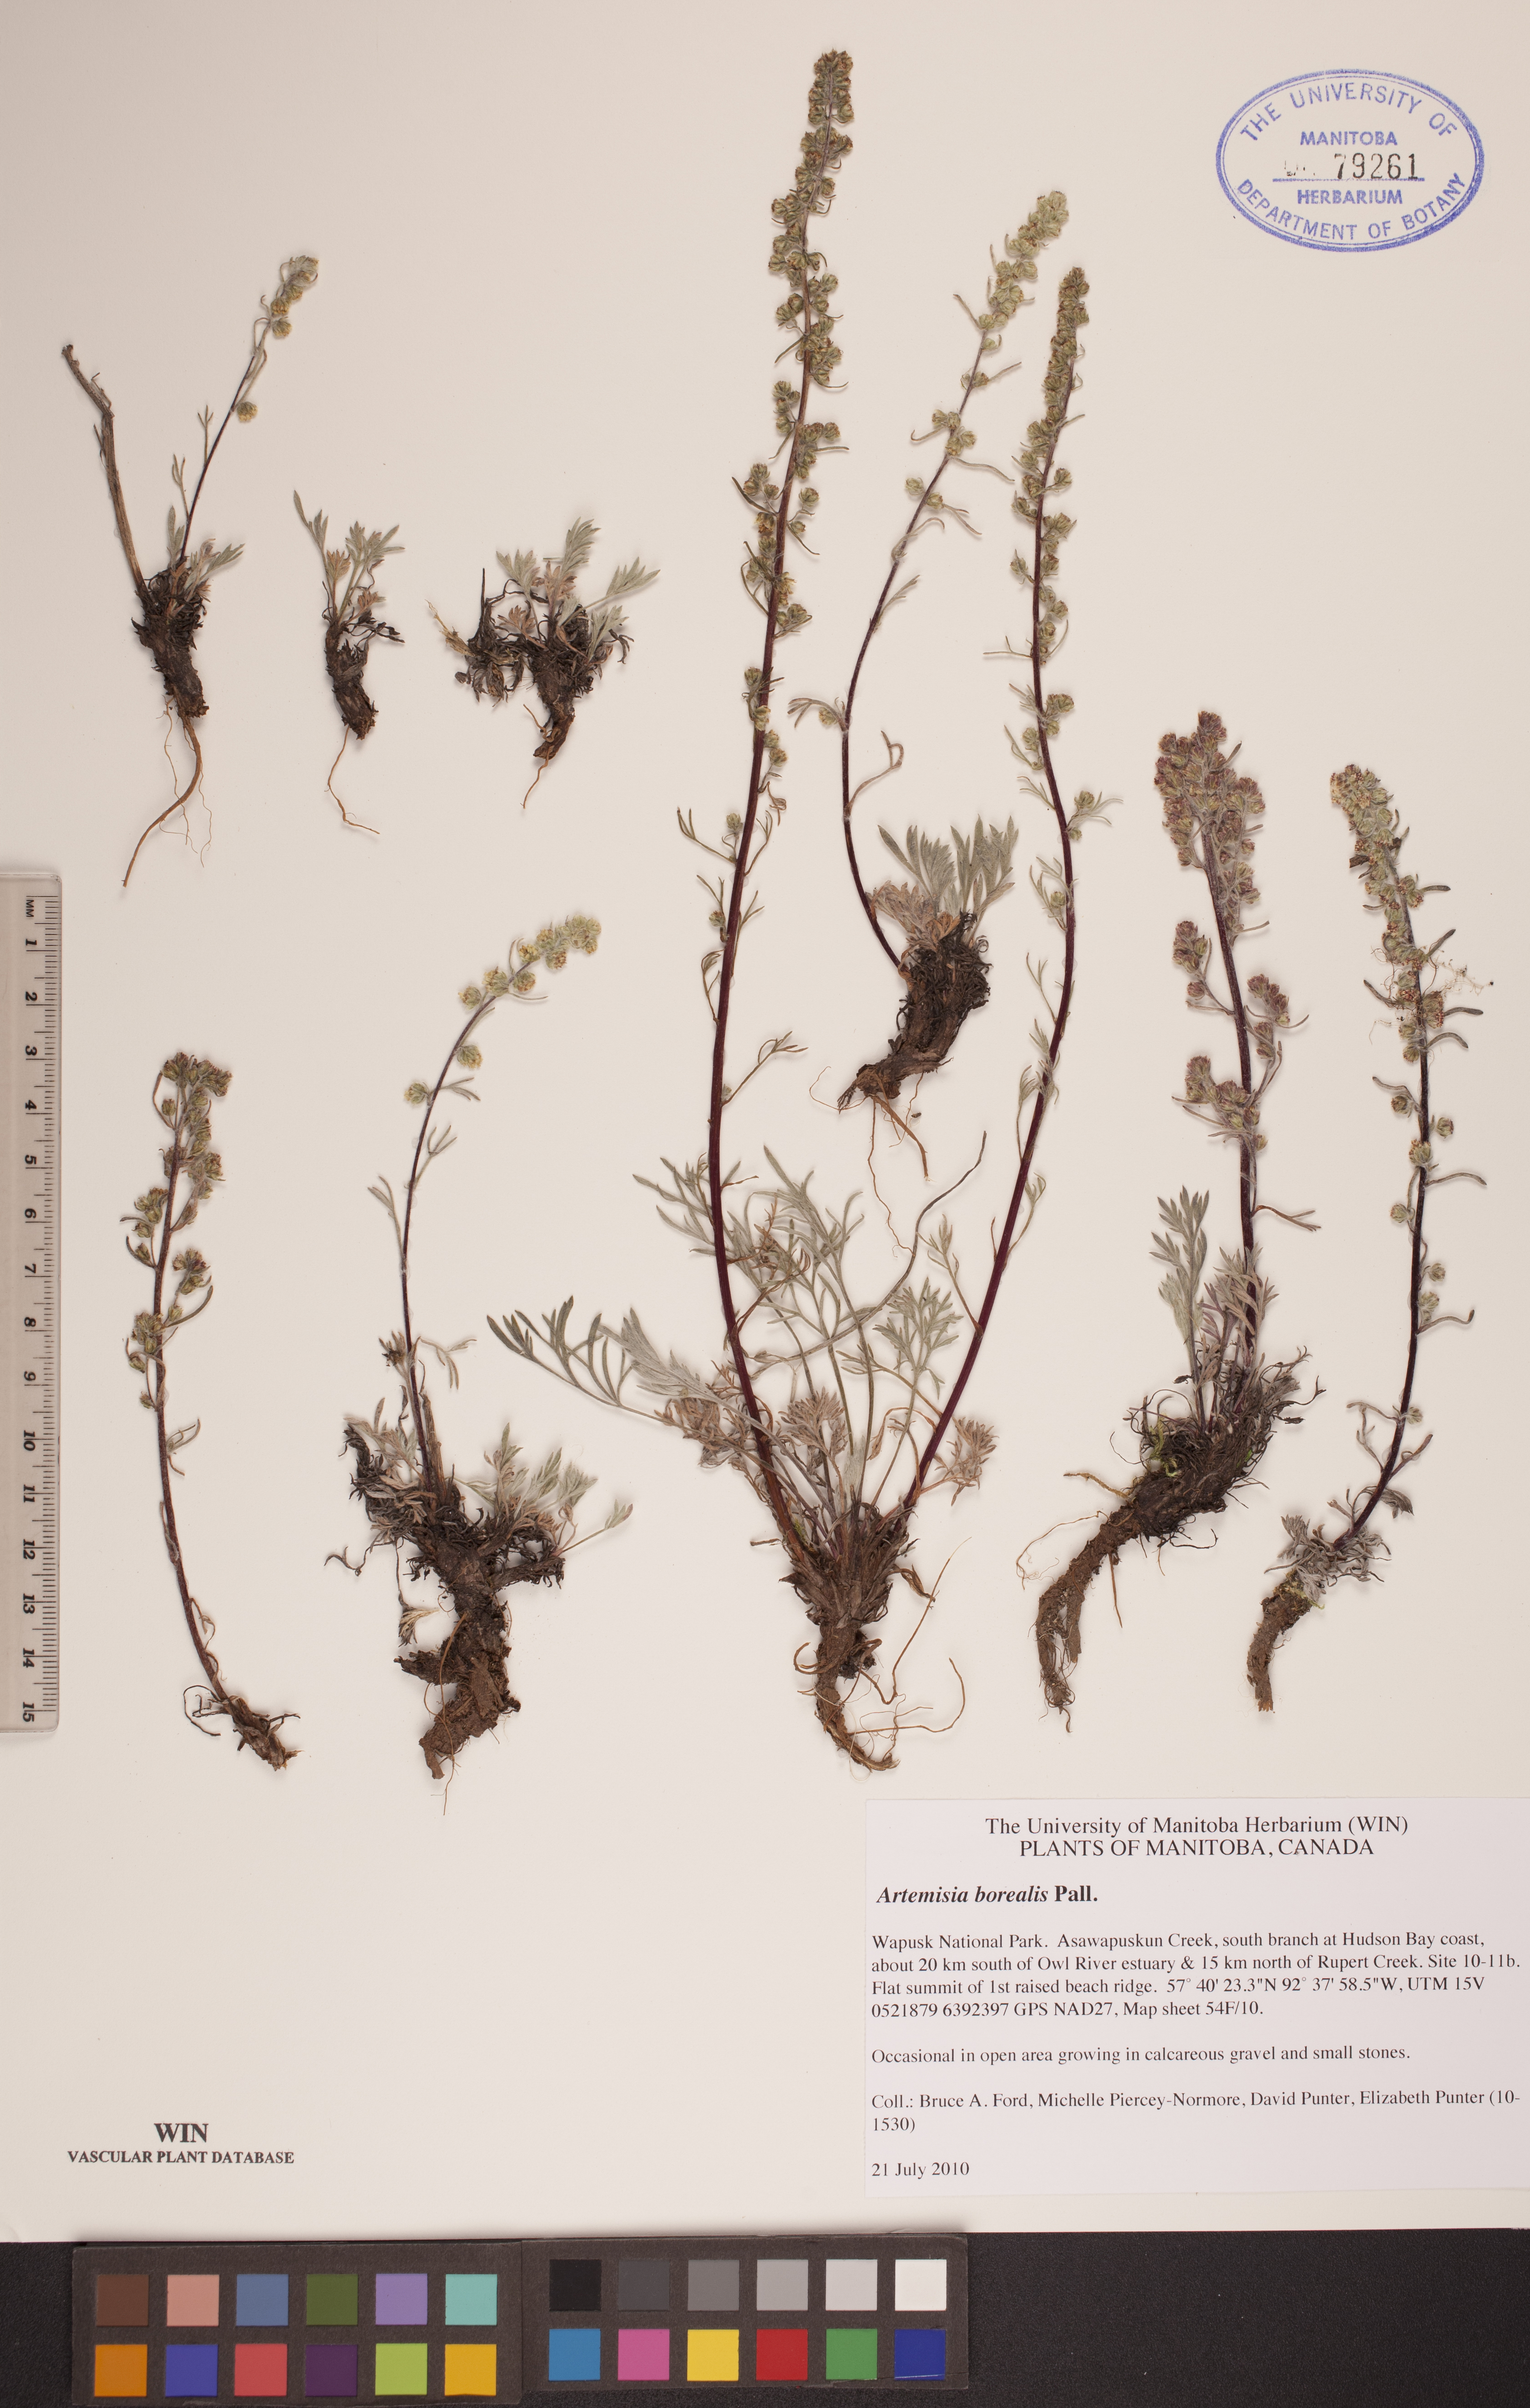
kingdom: Plantae
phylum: Tracheophyta
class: Magnoliopsida
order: Asterales
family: Asteraceae
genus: Artemisia
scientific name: Artemisia borealis
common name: Boreal sage
